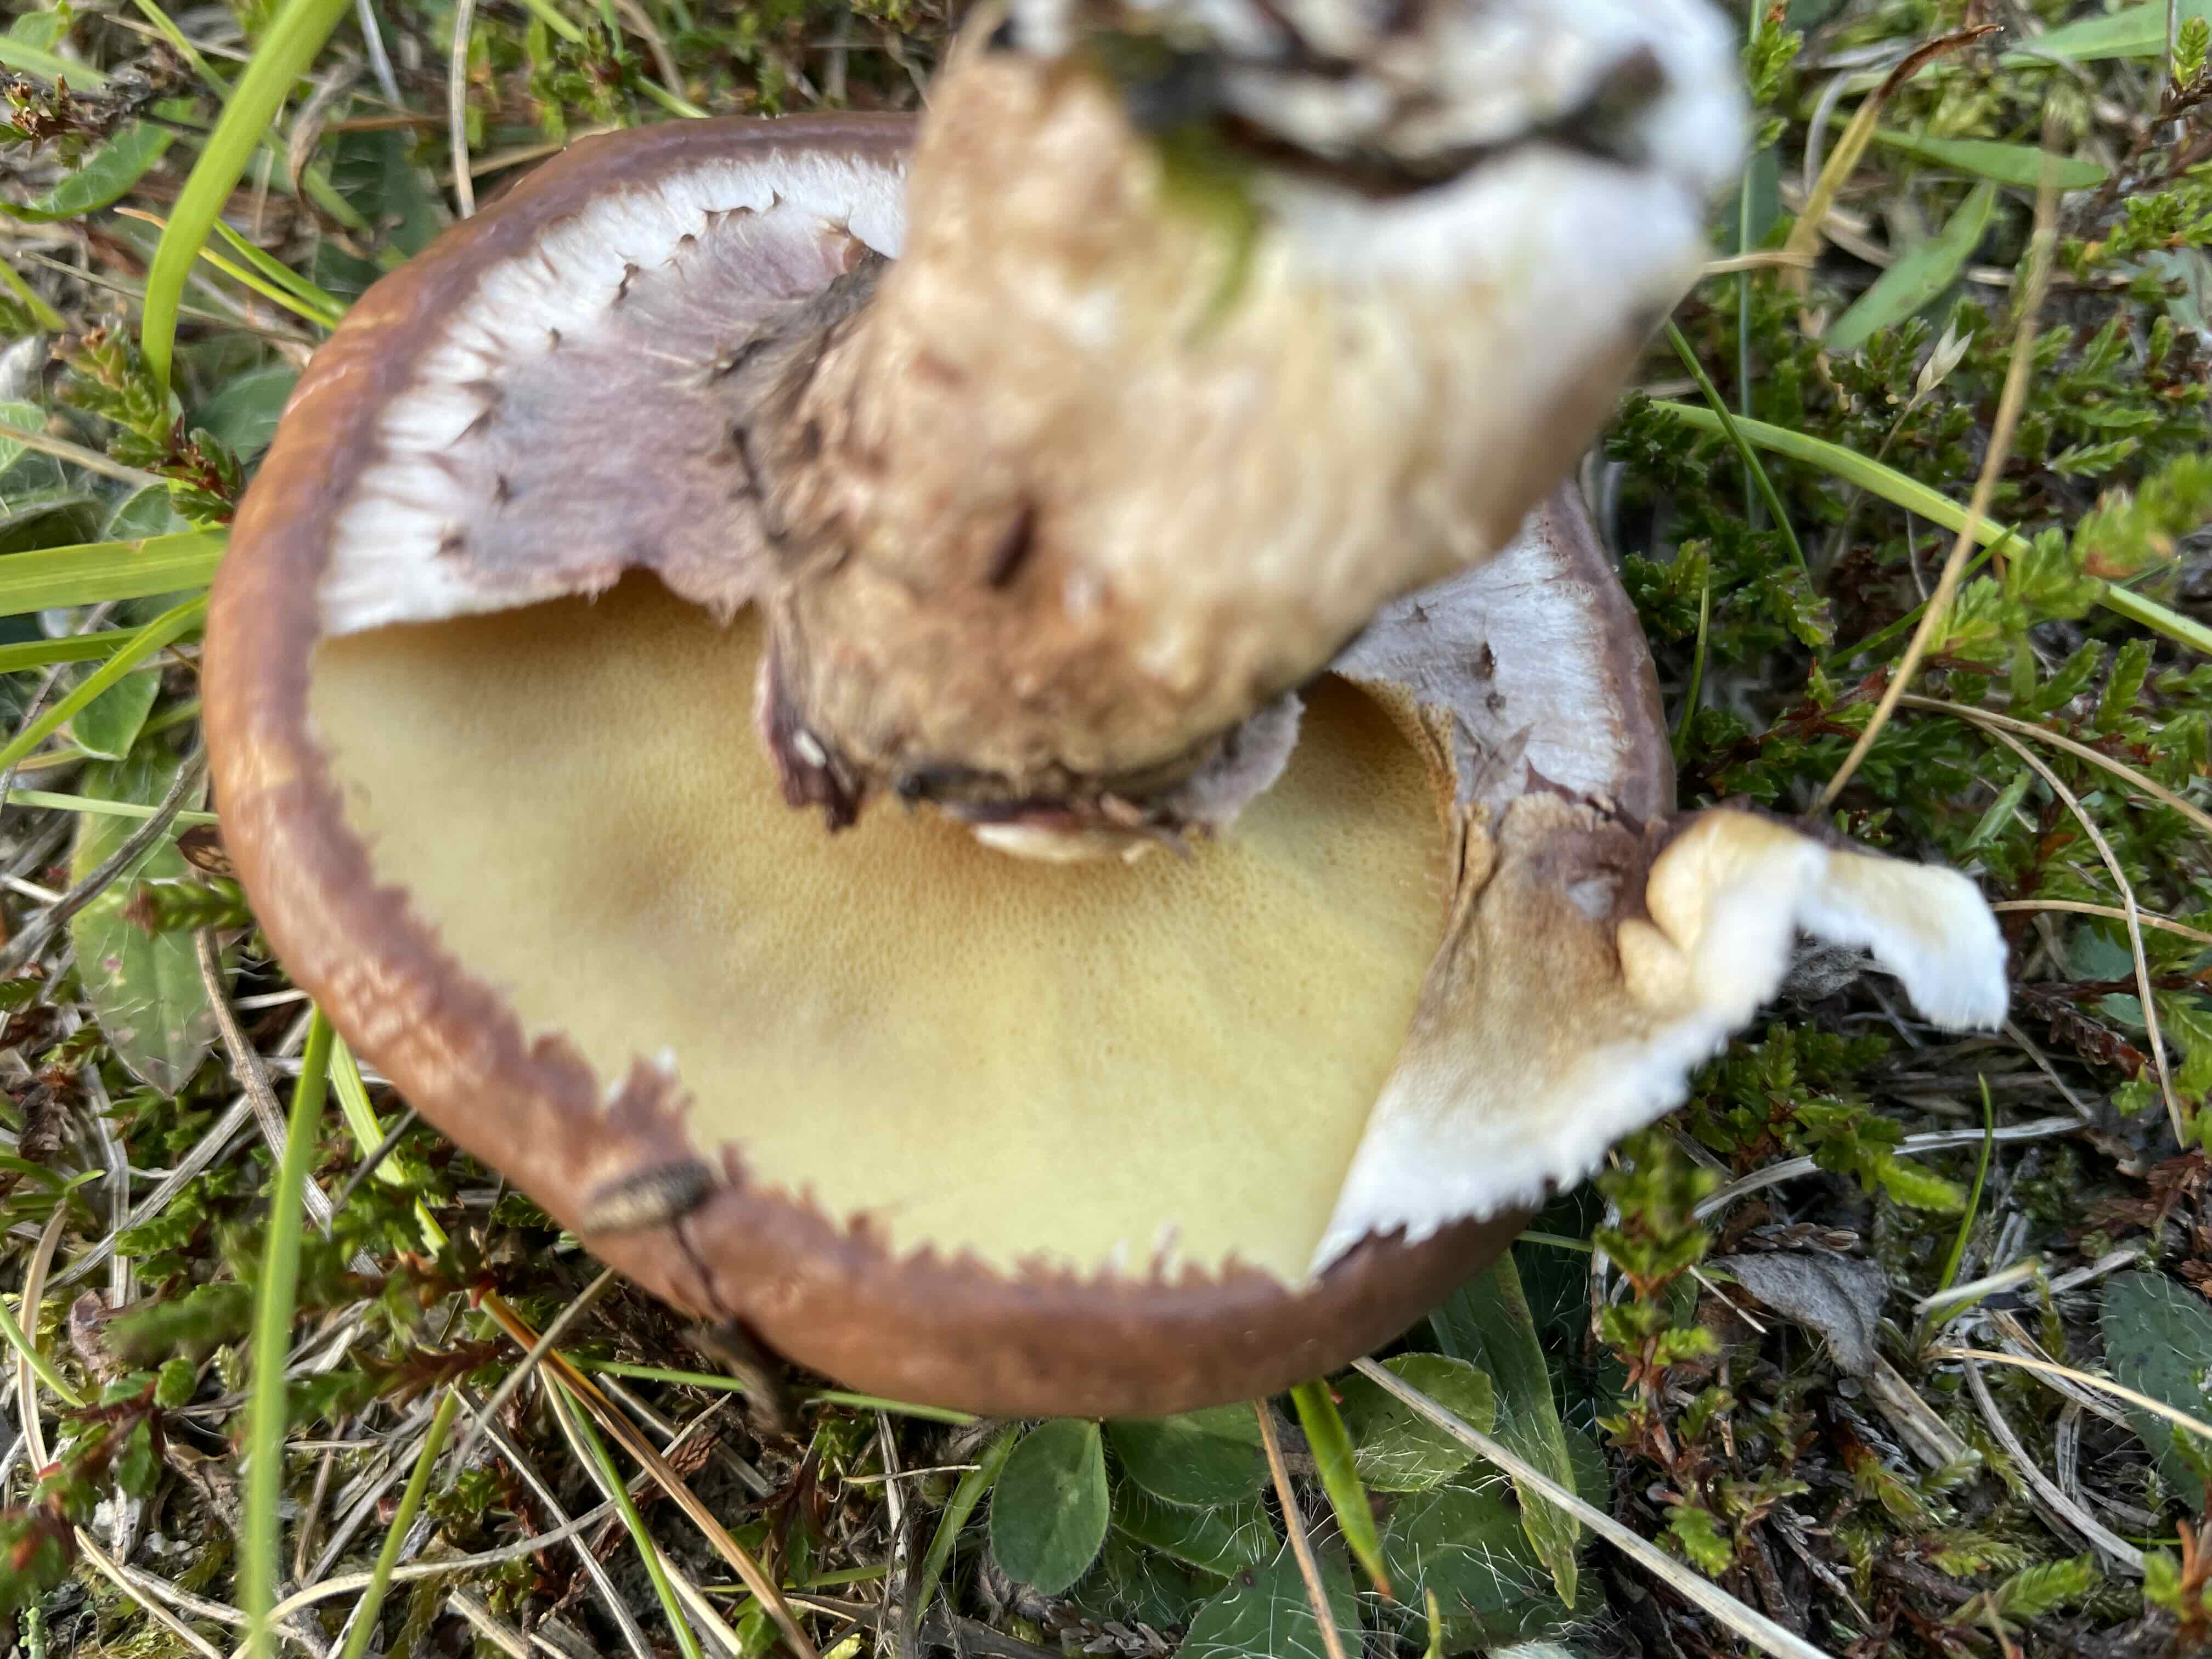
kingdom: Fungi
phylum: Basidiomycota
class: Agaricomycetes
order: Boletales
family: Suillaceae
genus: Suillus
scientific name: Suillus luteus
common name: brungul slimrørhat
